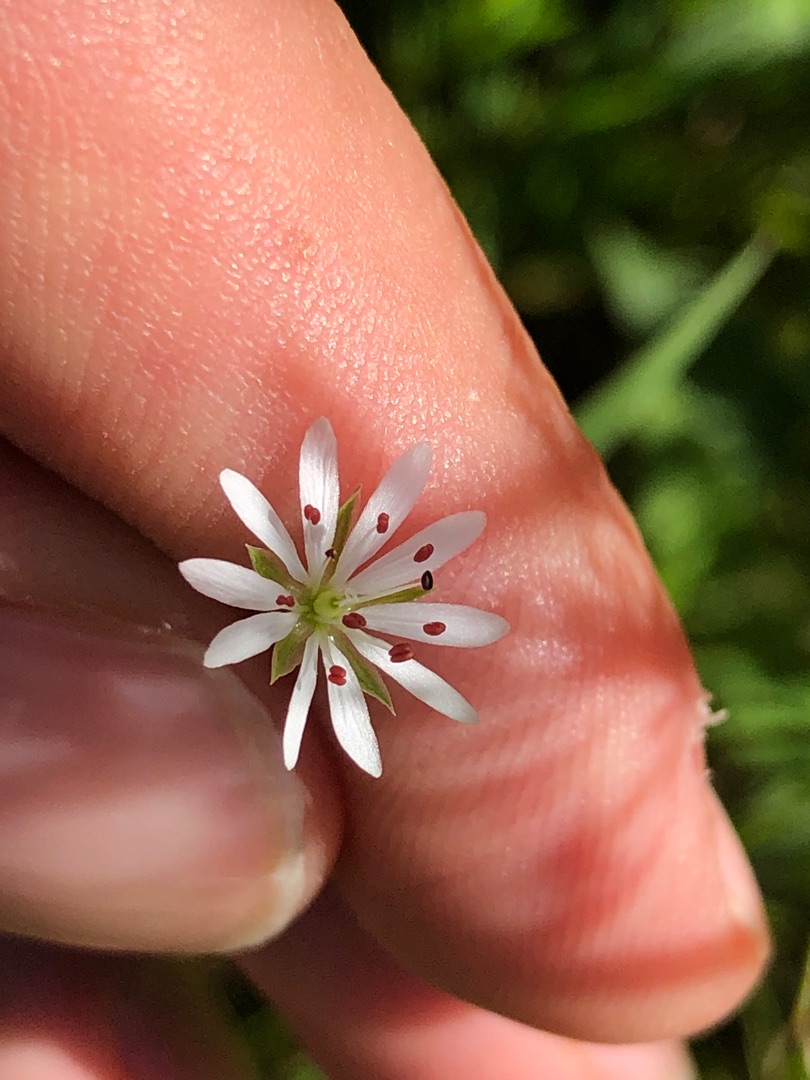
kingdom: Plantae
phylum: Tracheophyta
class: Magnoliopsida
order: Caryophyllales
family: Caryophyllaceae
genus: Stellaria
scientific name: Stellaria graminea
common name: Græsbladet fladstjerne
